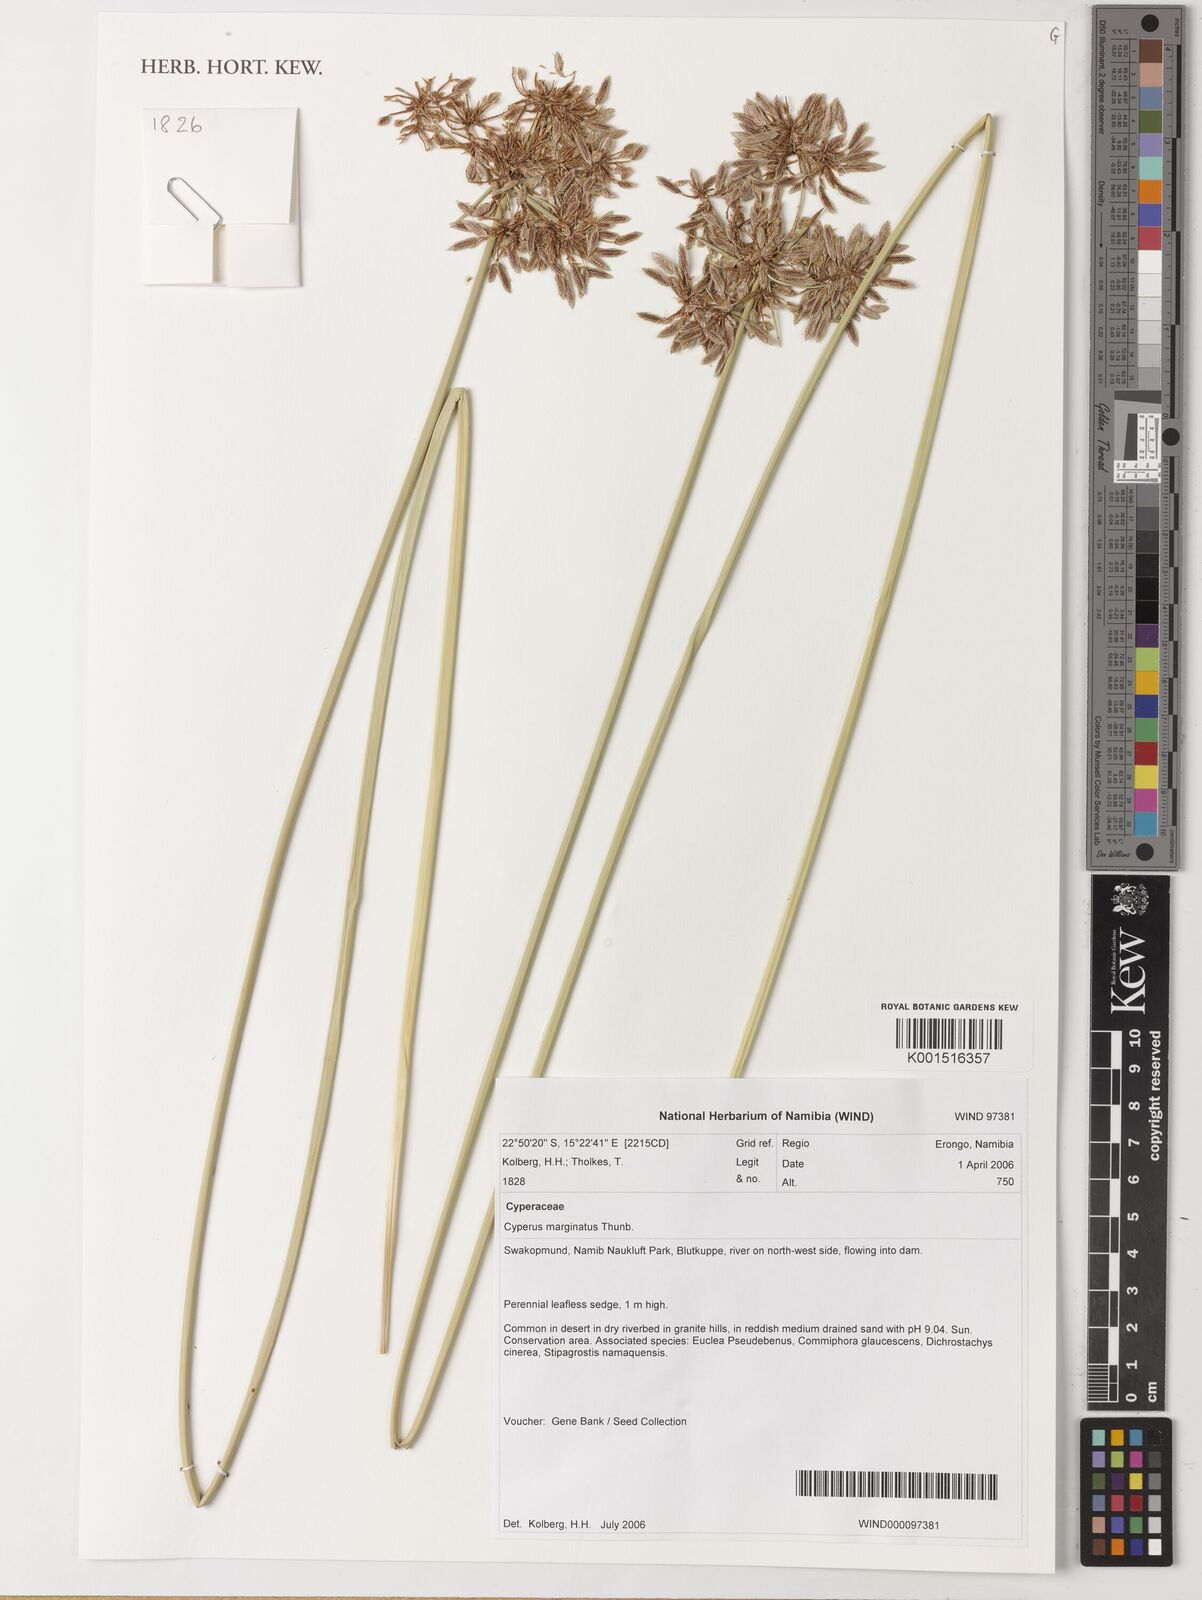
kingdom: Plantae
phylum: Tracheophyta
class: Liliopsida
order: Poales
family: Cyperaceae
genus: Cyperus
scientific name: Cyperus marginatus
